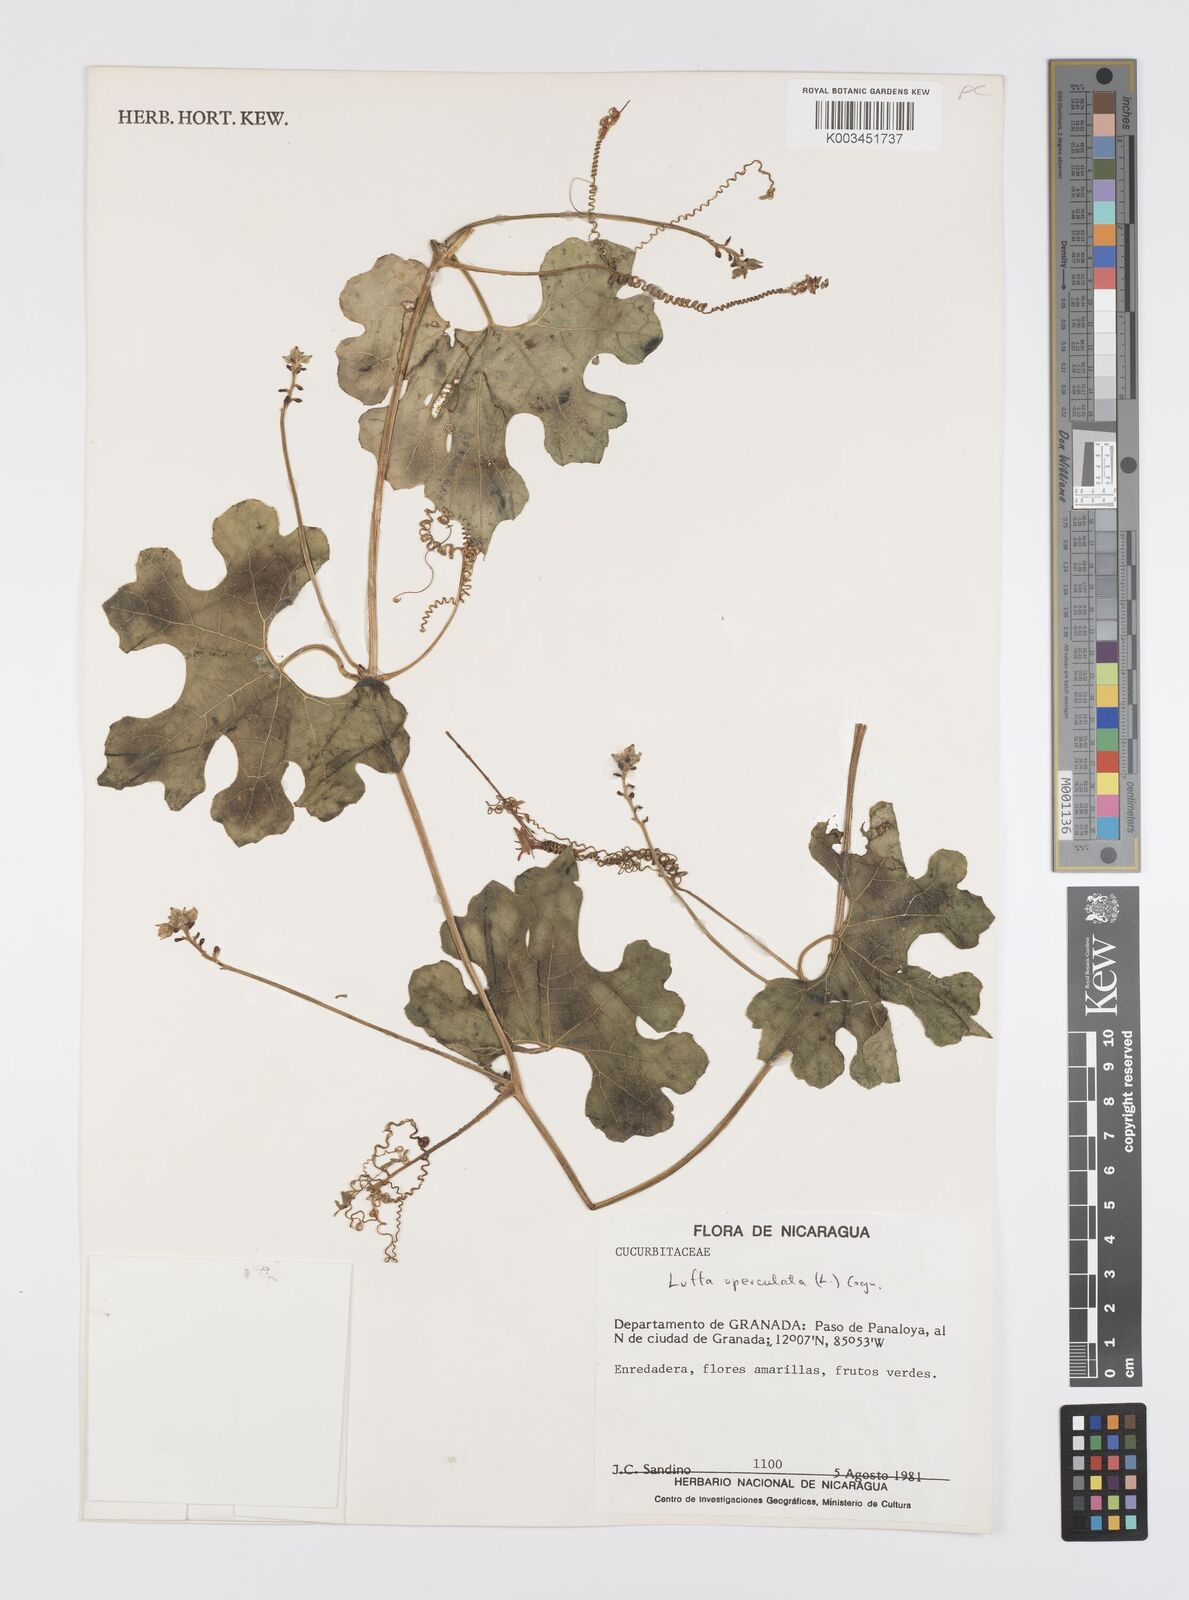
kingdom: Plantae
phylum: Tracheophyta
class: Magnoliopsida
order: Cucurbitales
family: Cucurbitaceae
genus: Luffa
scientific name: Luffa quinquefolia
